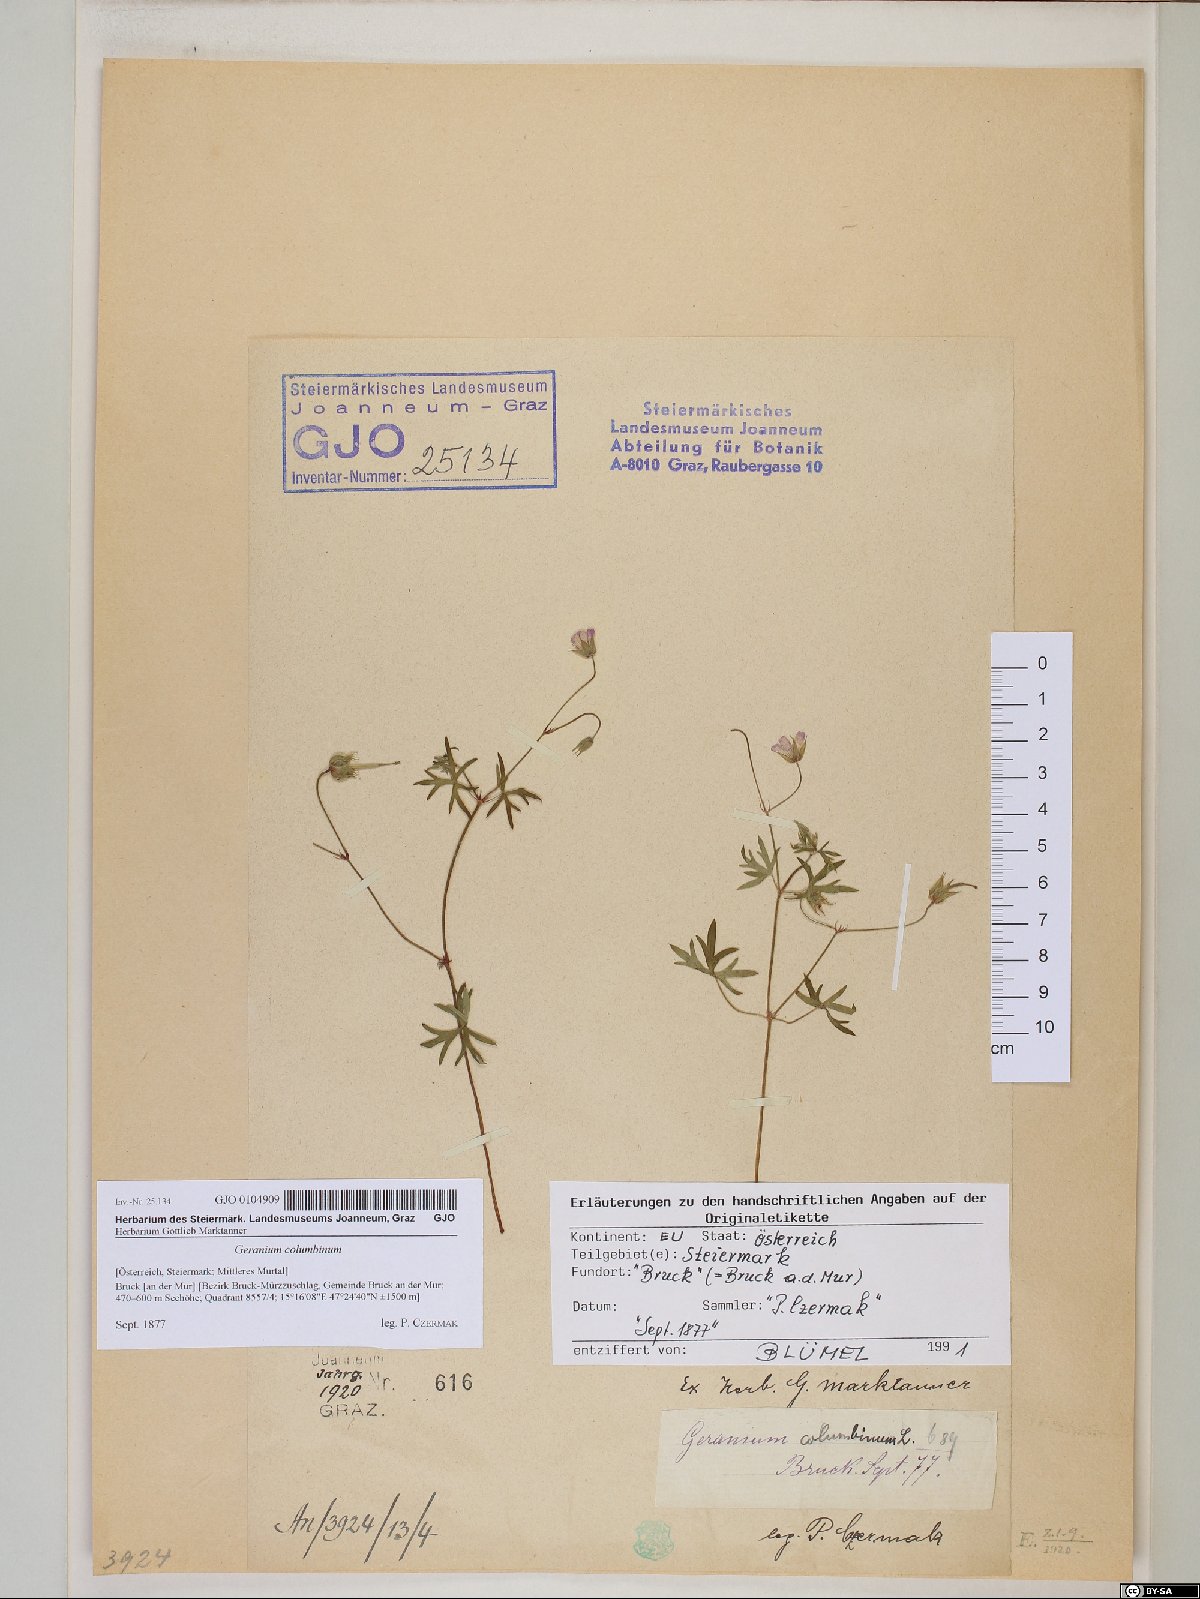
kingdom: Plantae
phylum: Tracheophyta
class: Magnoliopsida
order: Geraniales
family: Geraniaceae
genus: Geranium
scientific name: Geranium columbinum
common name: Long-stalked crane's-bill
